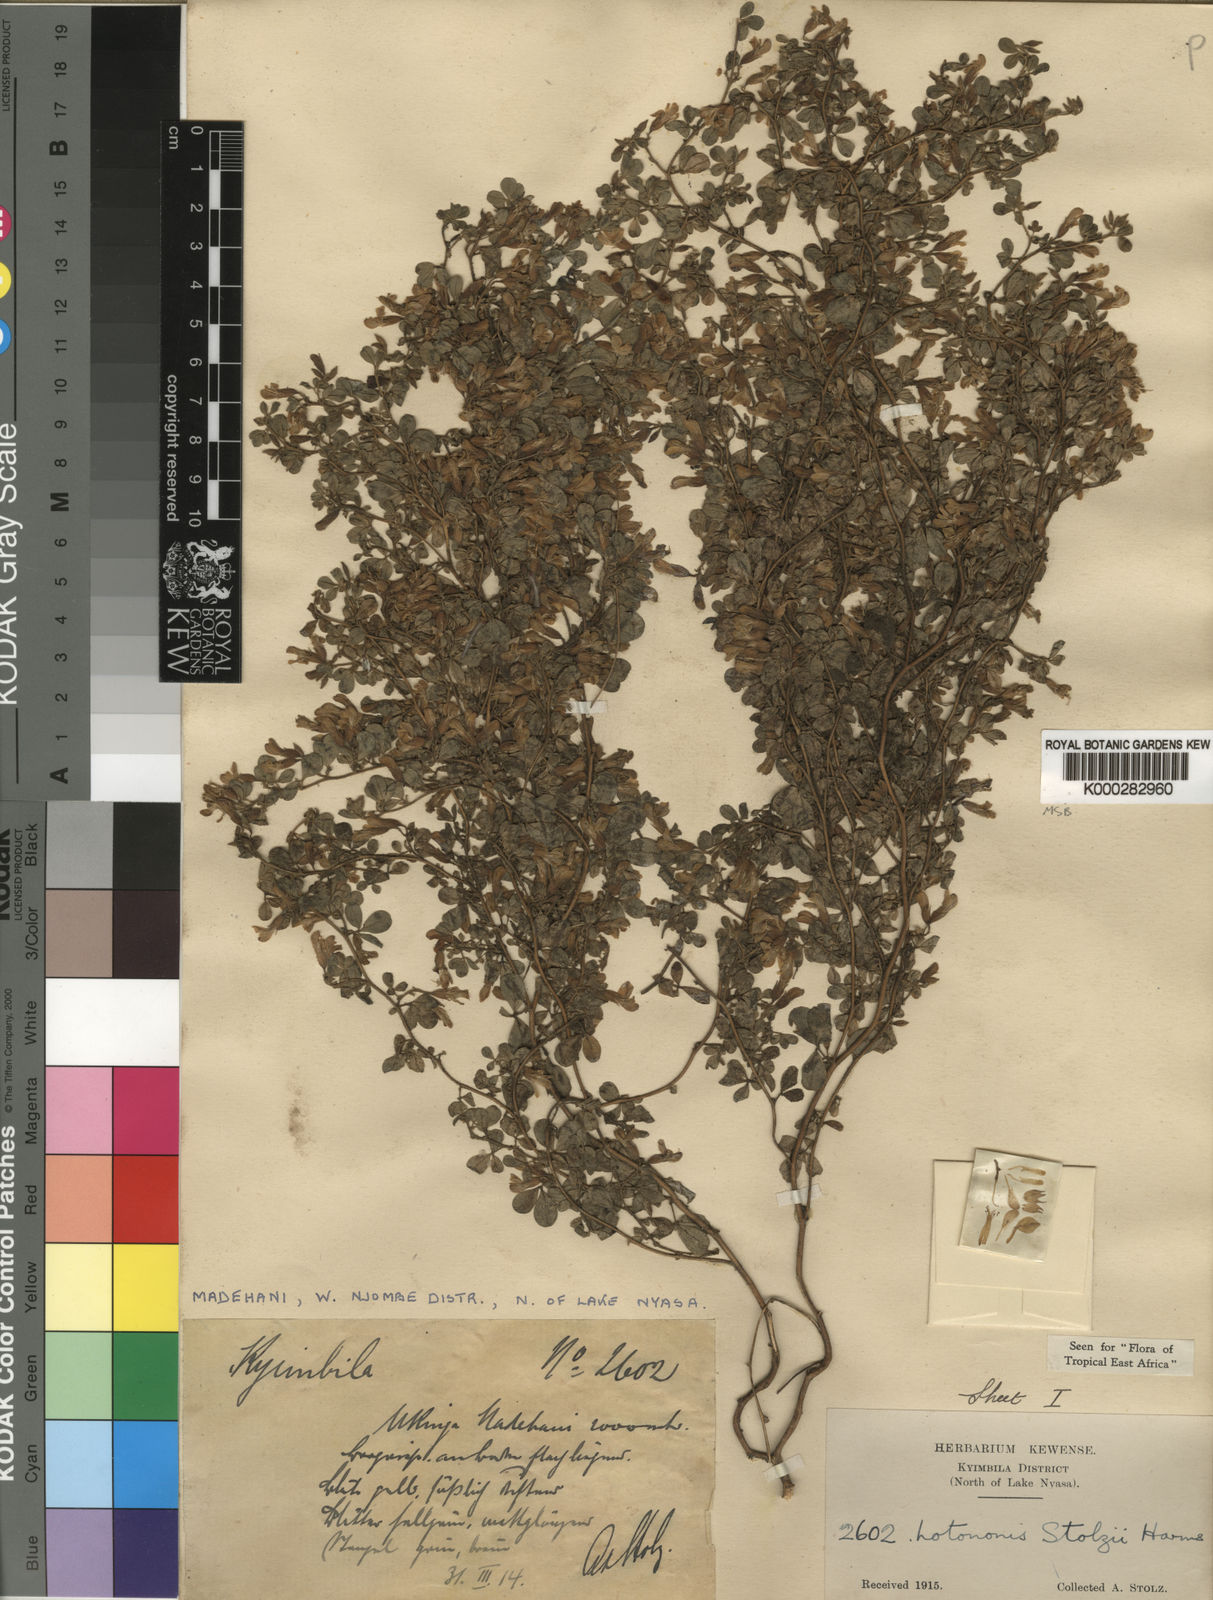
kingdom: Plantae
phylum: Tracheophyta
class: Magnoliopsida
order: Fabales
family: Fabaceae
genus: Leobordea
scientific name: Leobordea stolzii
